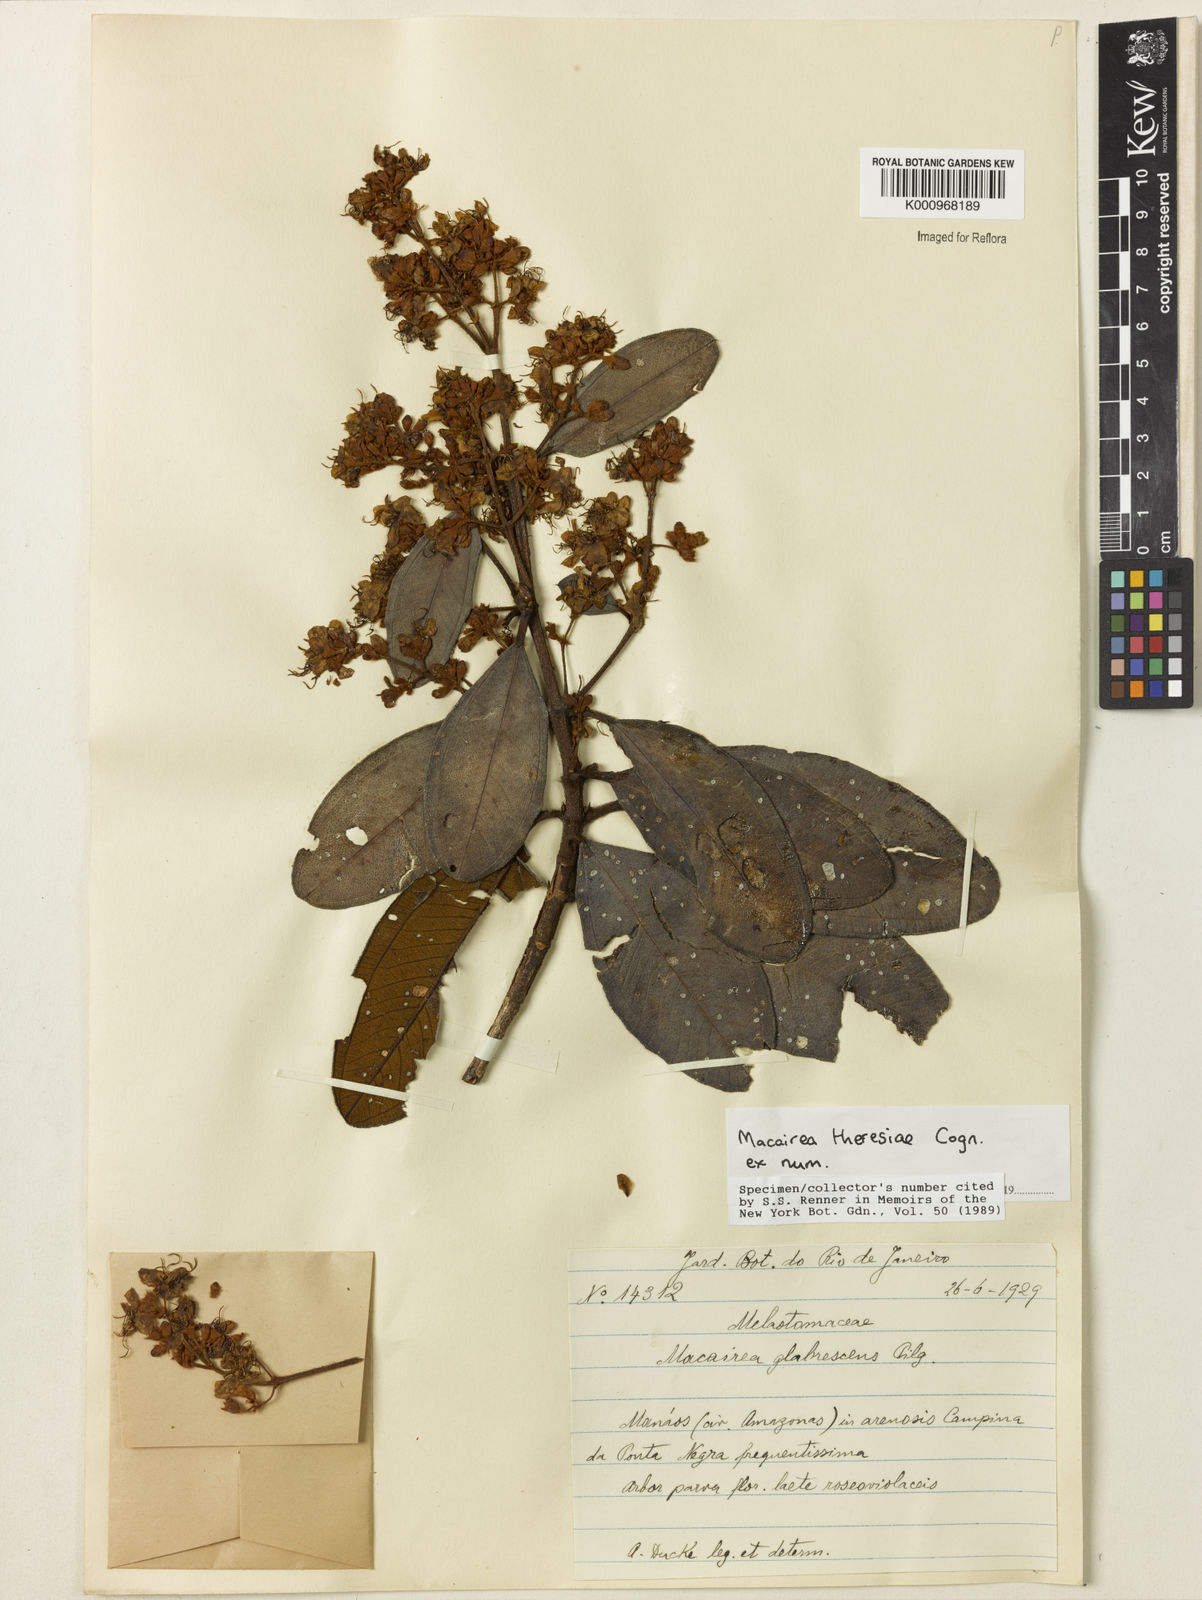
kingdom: Plantae
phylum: Tracheophyta
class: Magnoliopsida
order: Myrtales
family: Melastomataceae
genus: Macairea
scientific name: Macairea theresiae
